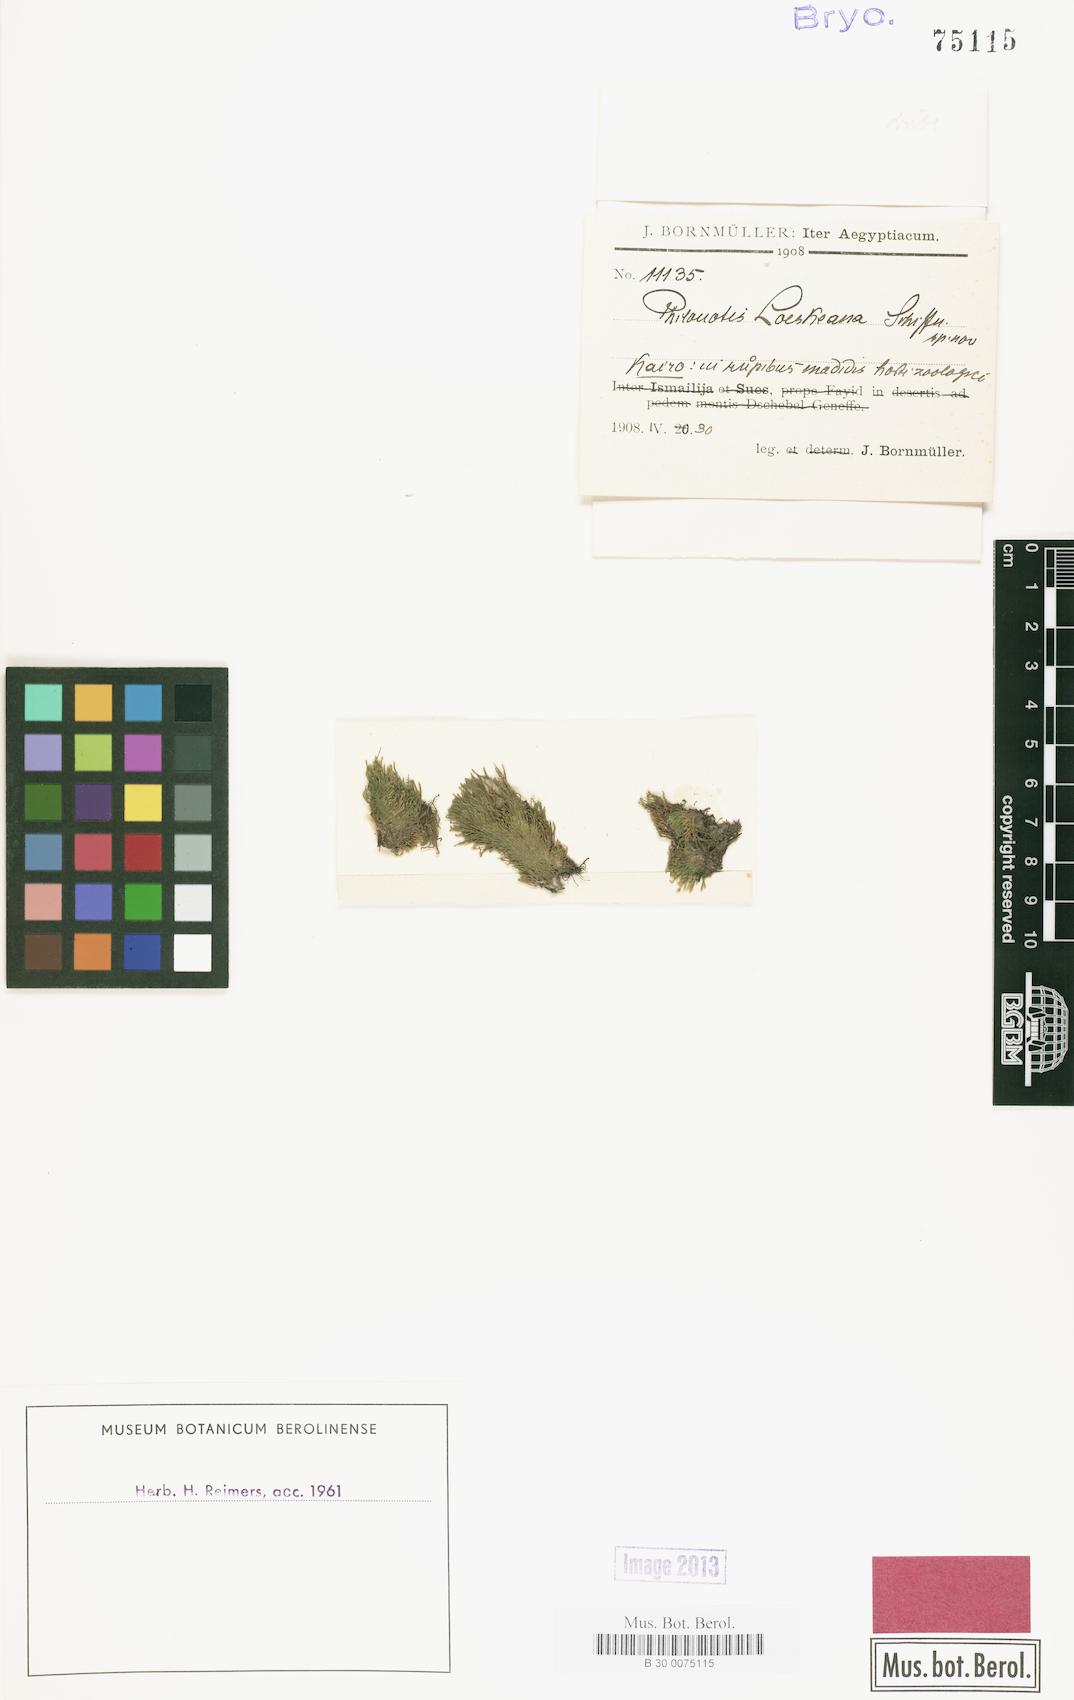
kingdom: Plantae
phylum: Bryophyta
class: Bryopsida
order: Bartramiales
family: Bartramiaceae
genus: Philonotis
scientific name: Philonotis
